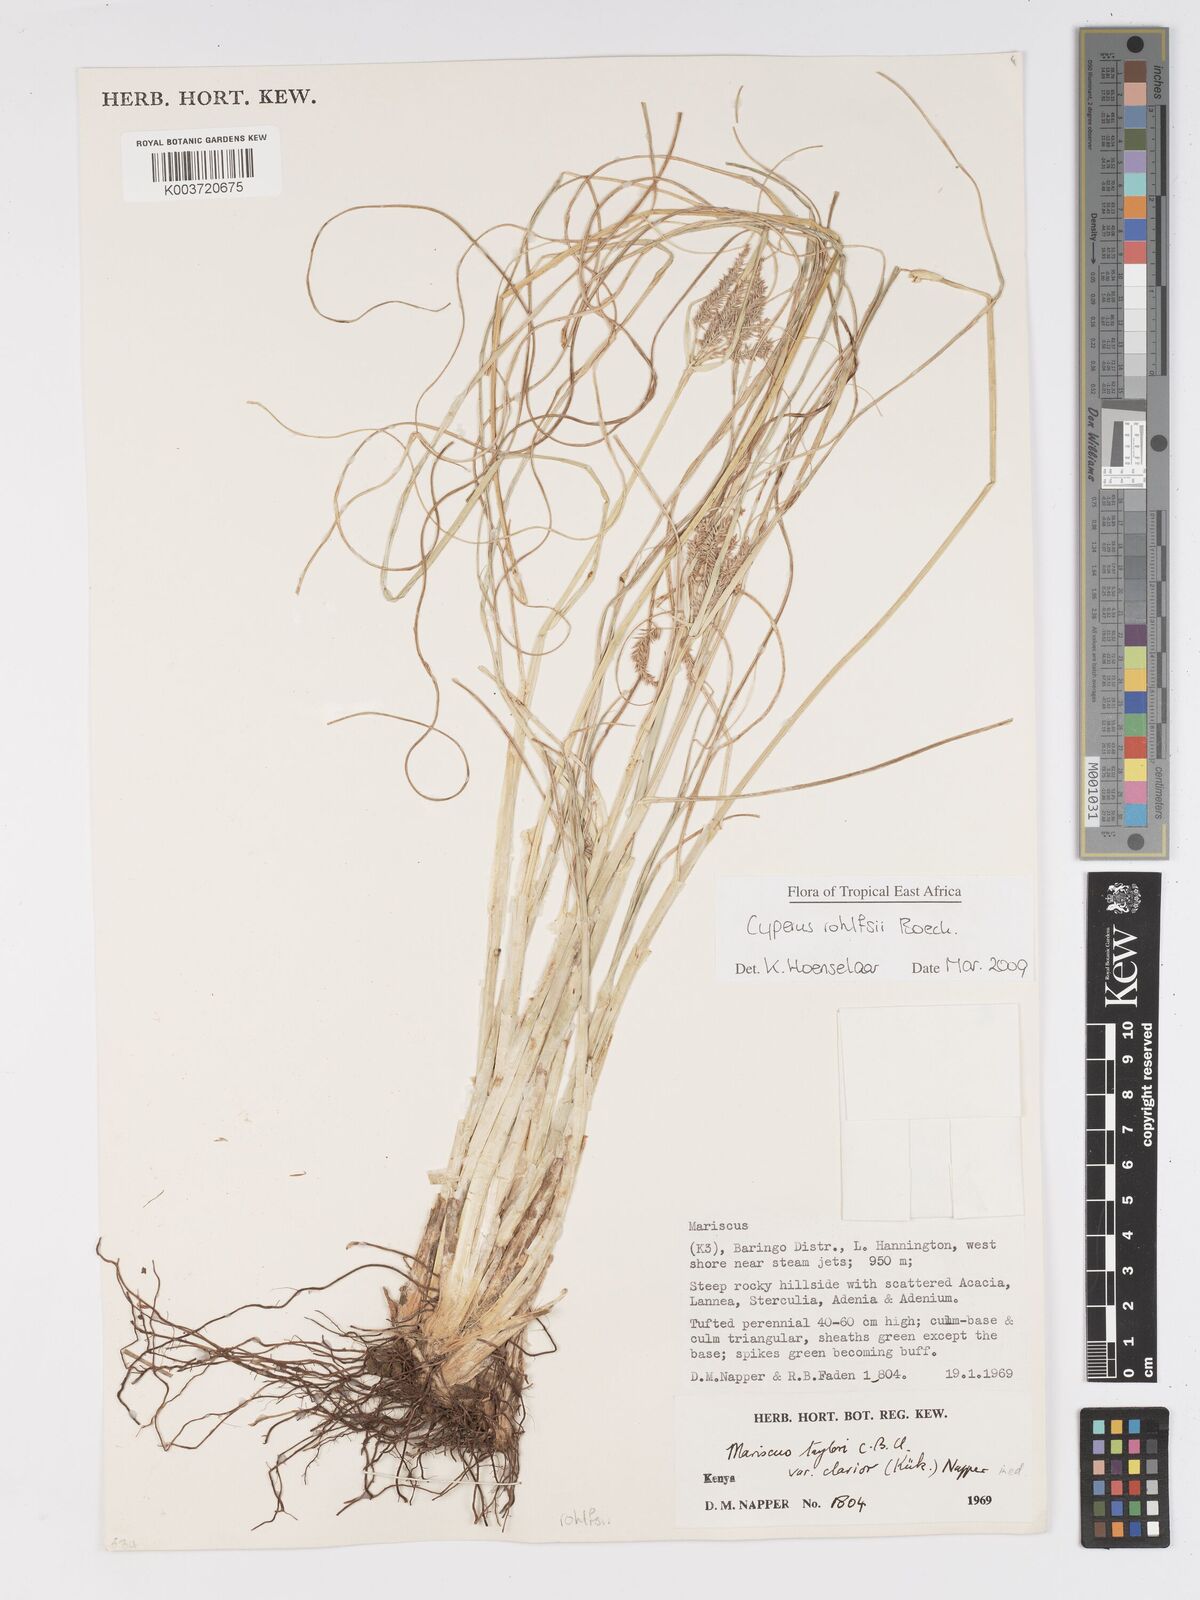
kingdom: Plantae
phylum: Tracheophyta
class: Liliopsida
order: Poales
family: Cyperaceae
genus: Cyperus
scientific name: Cyperus rohlfsii
